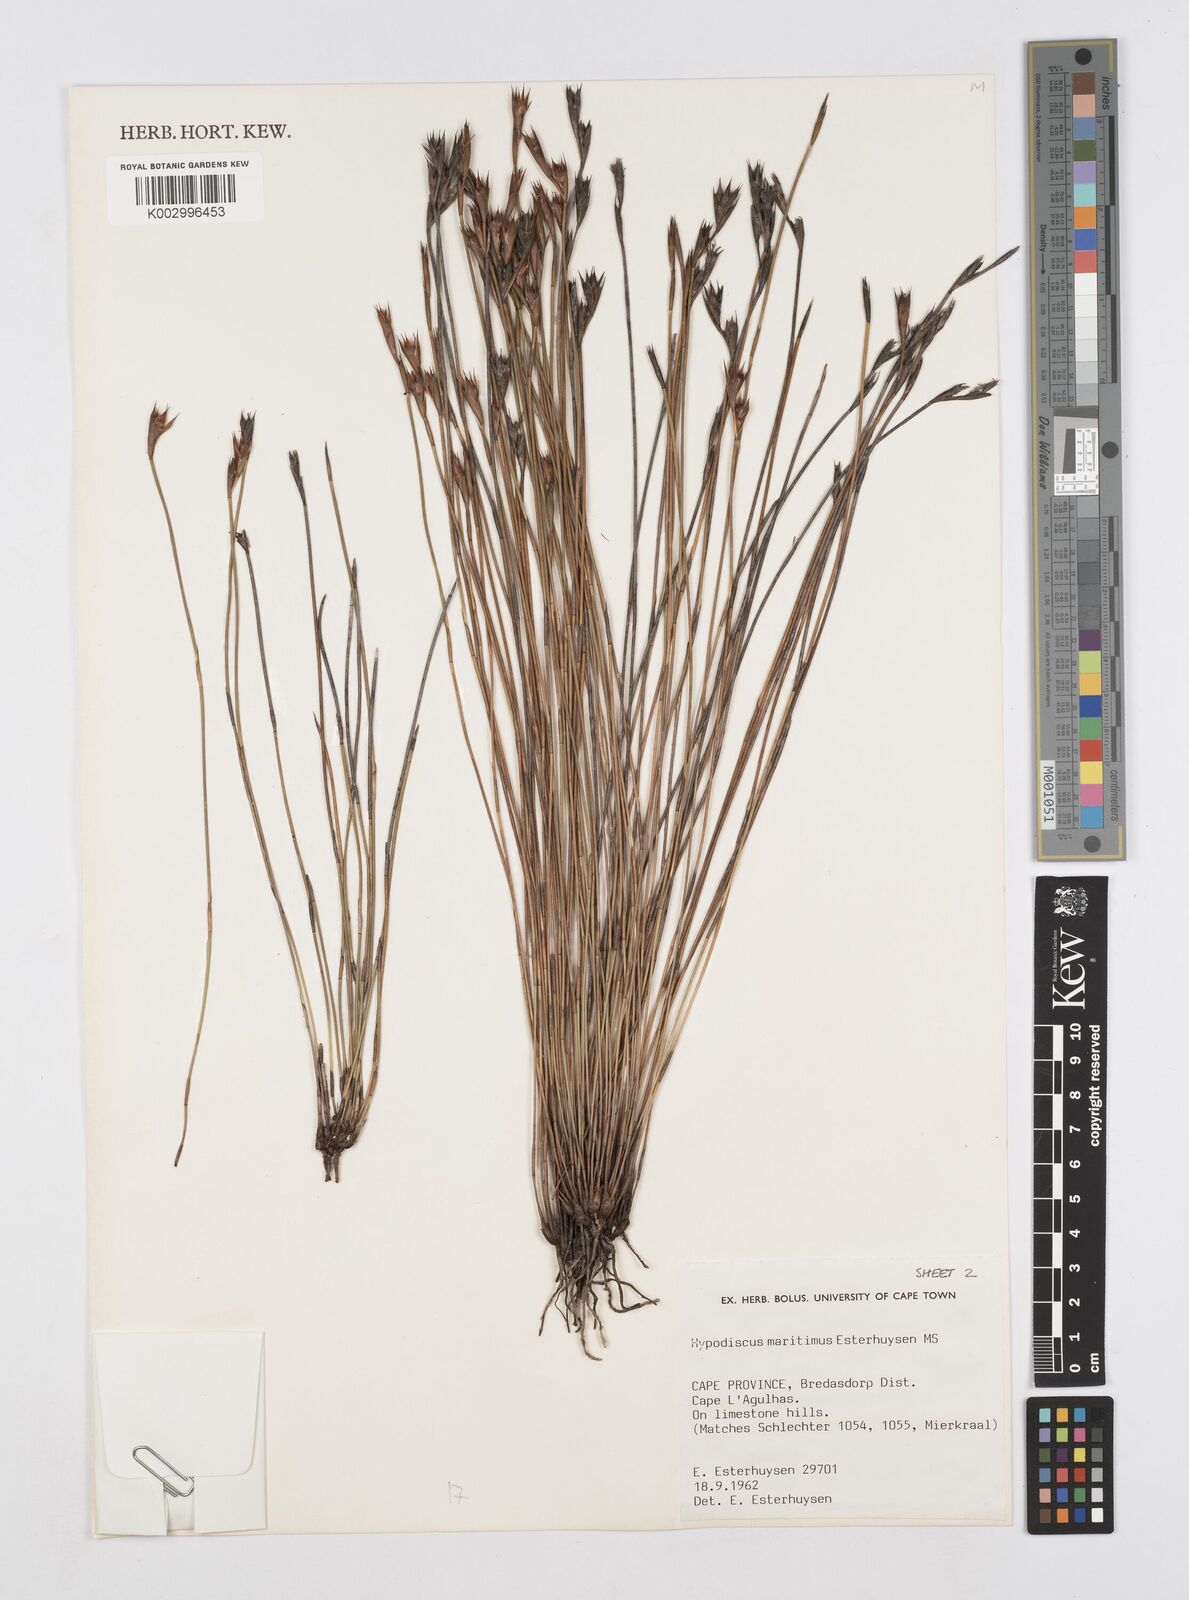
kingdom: Plantae
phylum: Tracheophyta
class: Liliopsida
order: Poales
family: Restionaceae
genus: Hypodiscus
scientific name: Hypodiscus
